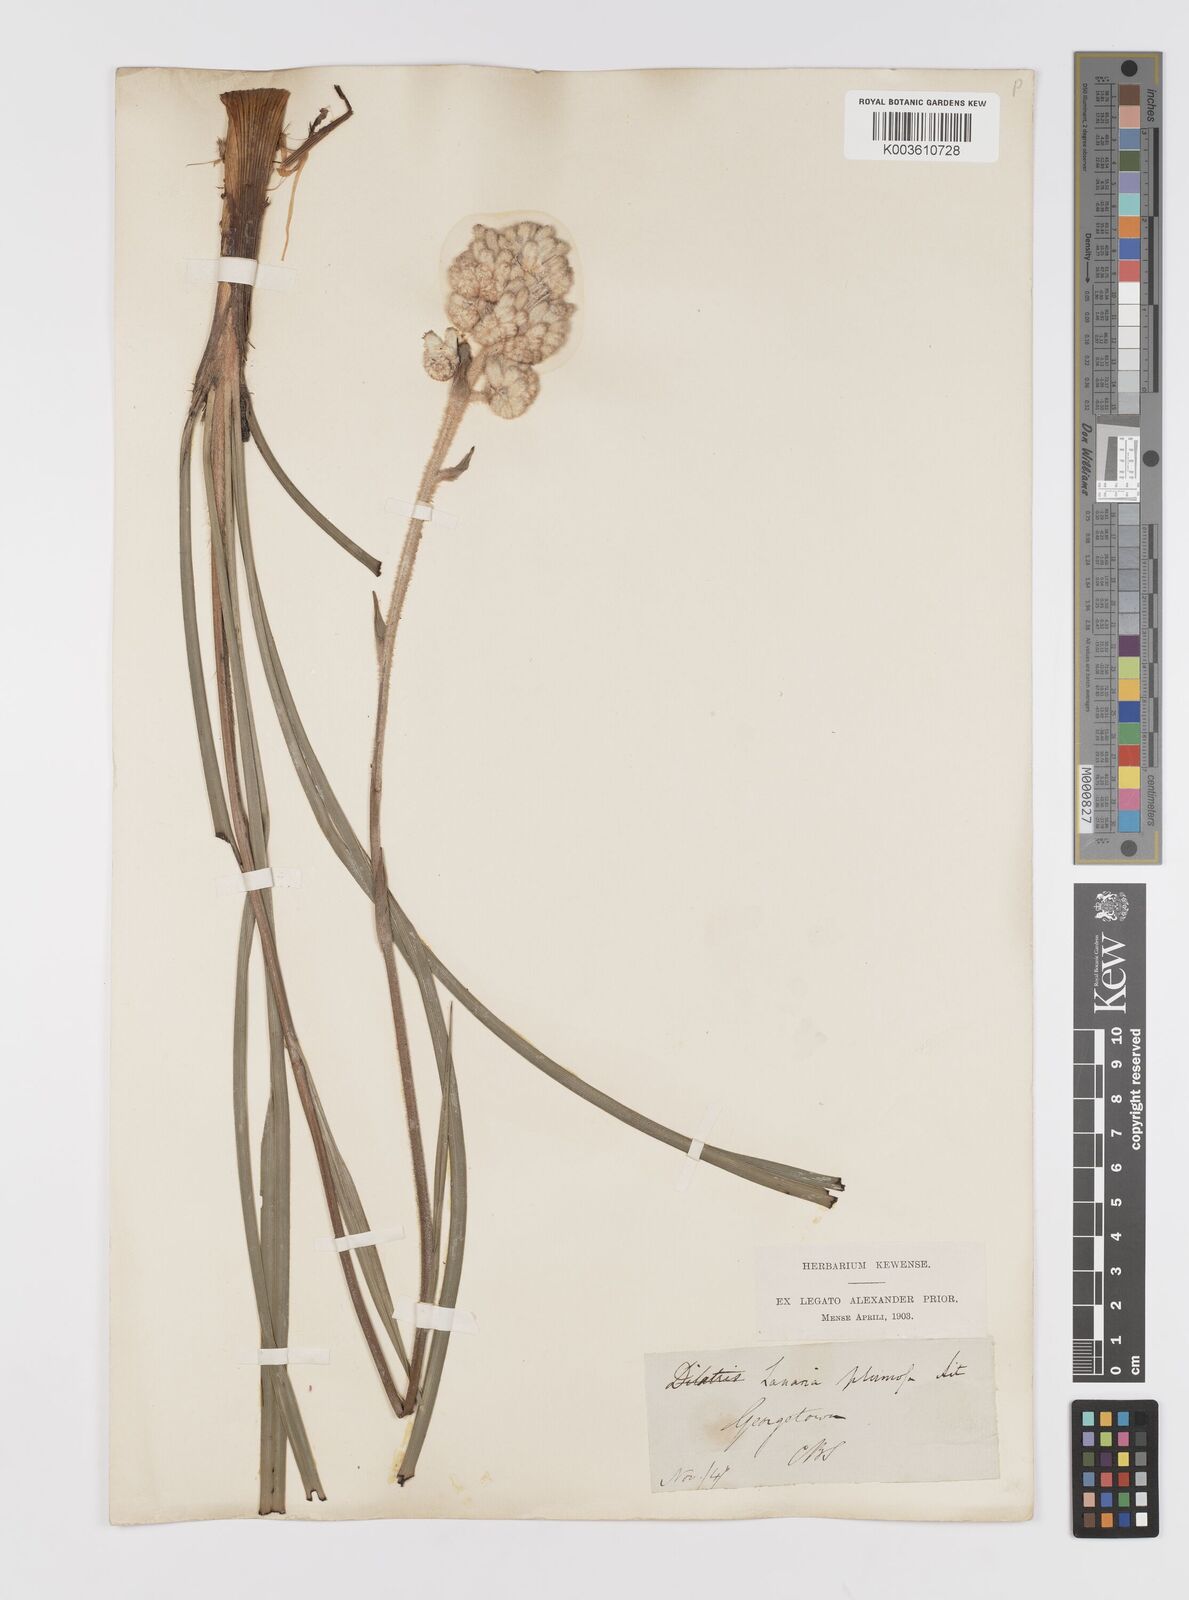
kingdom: Plantae
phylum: Tracheophyta
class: Liliopsida
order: Asparagales
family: Lanariaceae
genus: Lanaria
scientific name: Lanaria lanata
